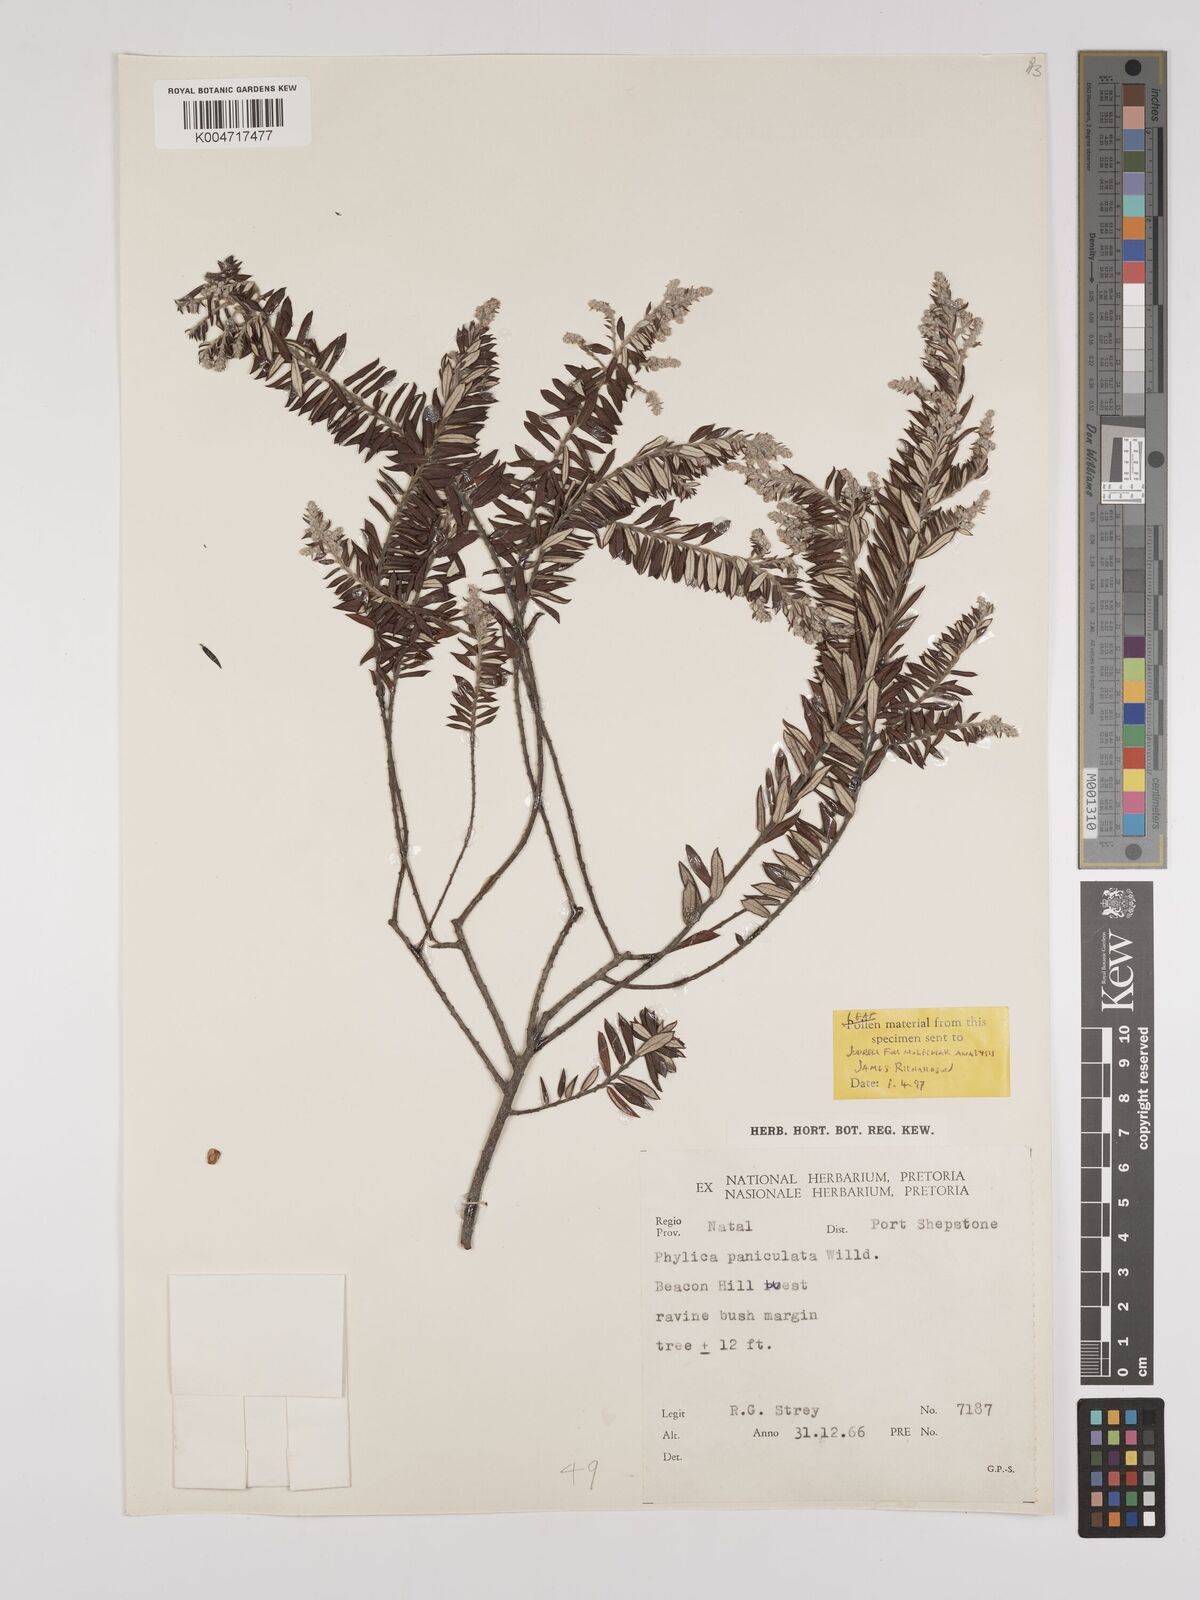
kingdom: Plantae
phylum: Tracheophyta
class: Magnoliopsida
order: Rosales
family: Rhamnaceae
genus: Phylica
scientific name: Phylica paniculata
